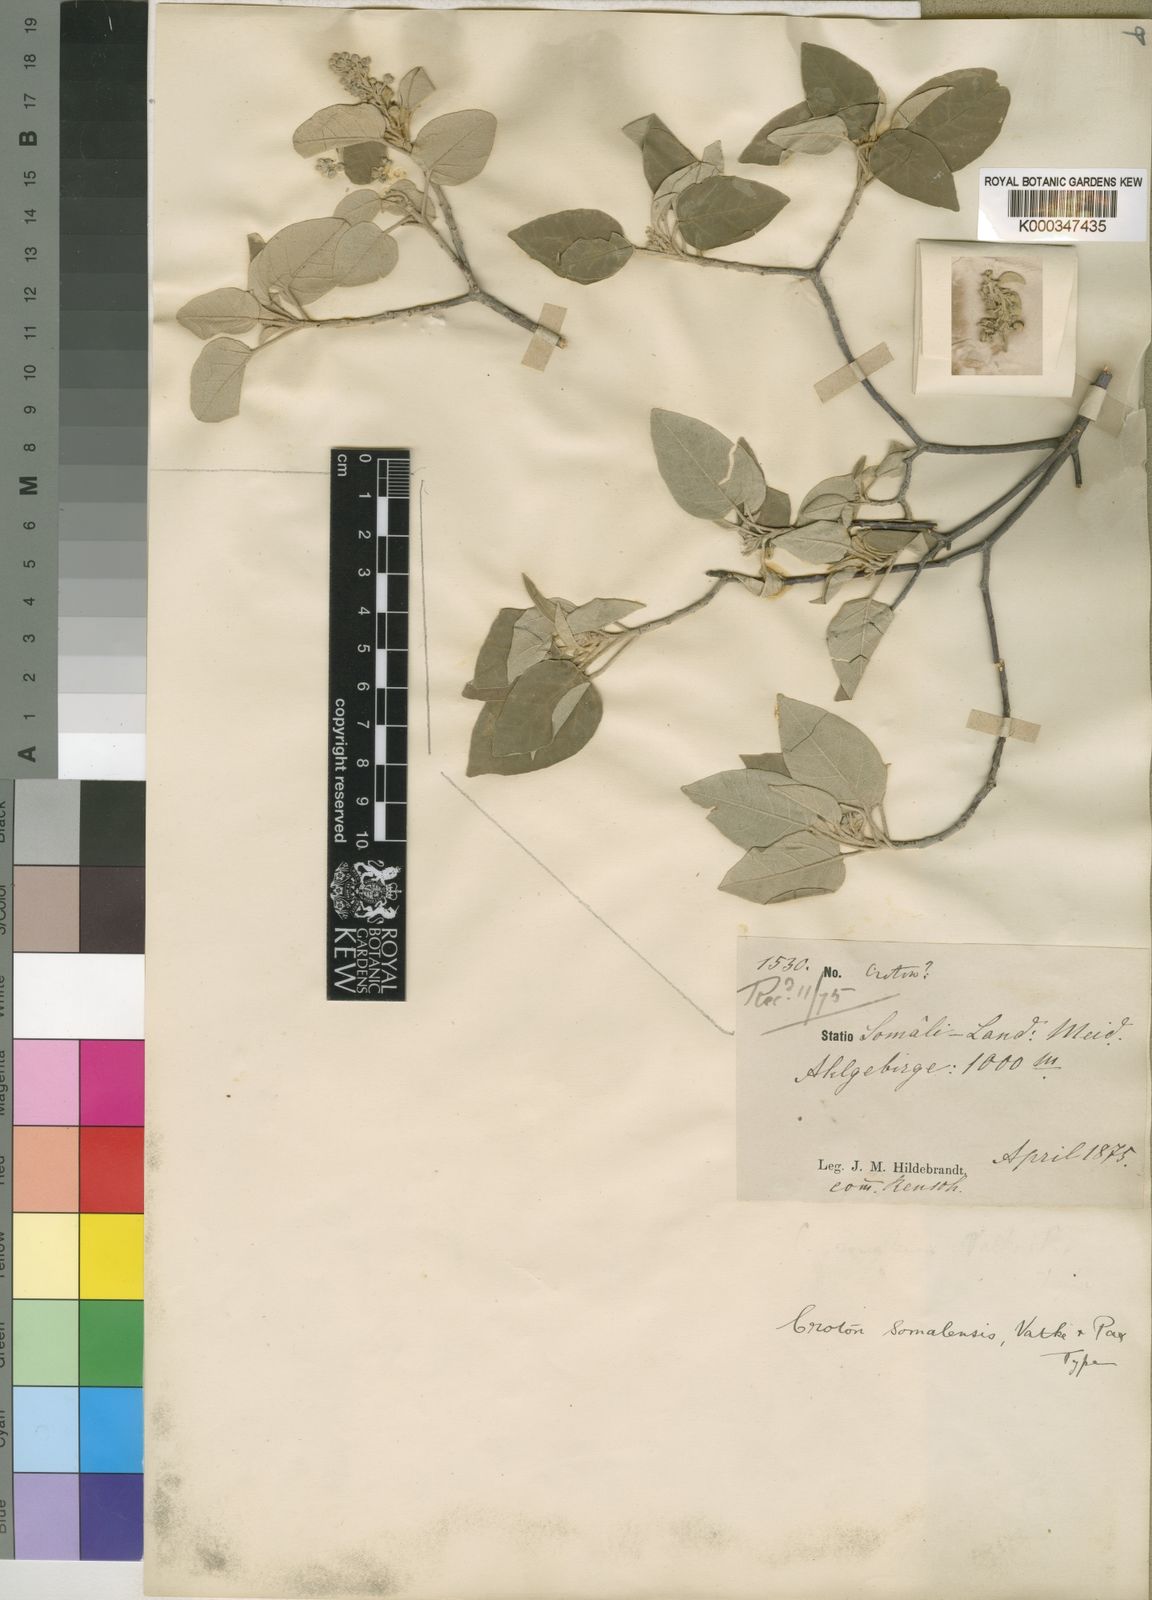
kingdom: Plantae
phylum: Tracheophyta
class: Magnoliopsida
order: Malpighiales
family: Euphorbiaceae
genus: Croton
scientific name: Croton somalensis
